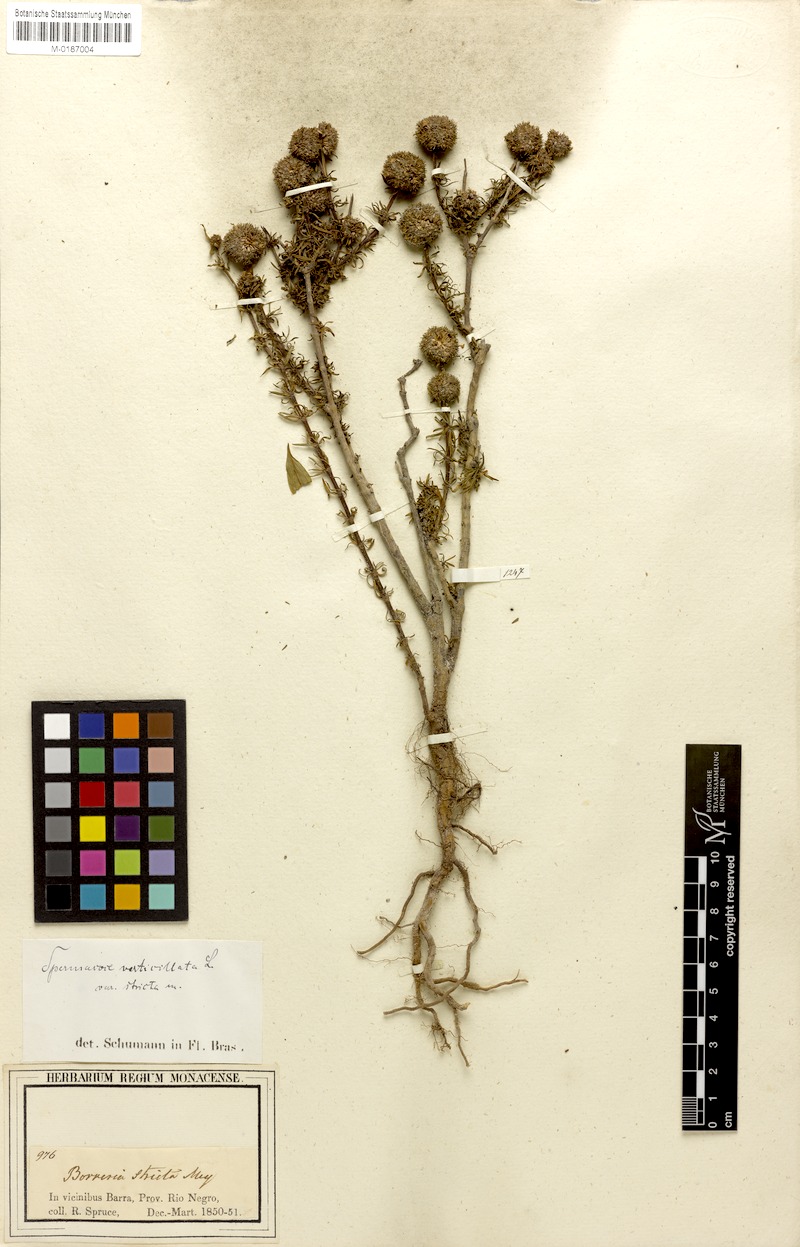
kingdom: Plantae
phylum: Tracheophyta
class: Magnoliopsida
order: Gentianales
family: Rubiaceae
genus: Spermacoce
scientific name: Spermacoce verticillata
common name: Shrubby false buttonweed
